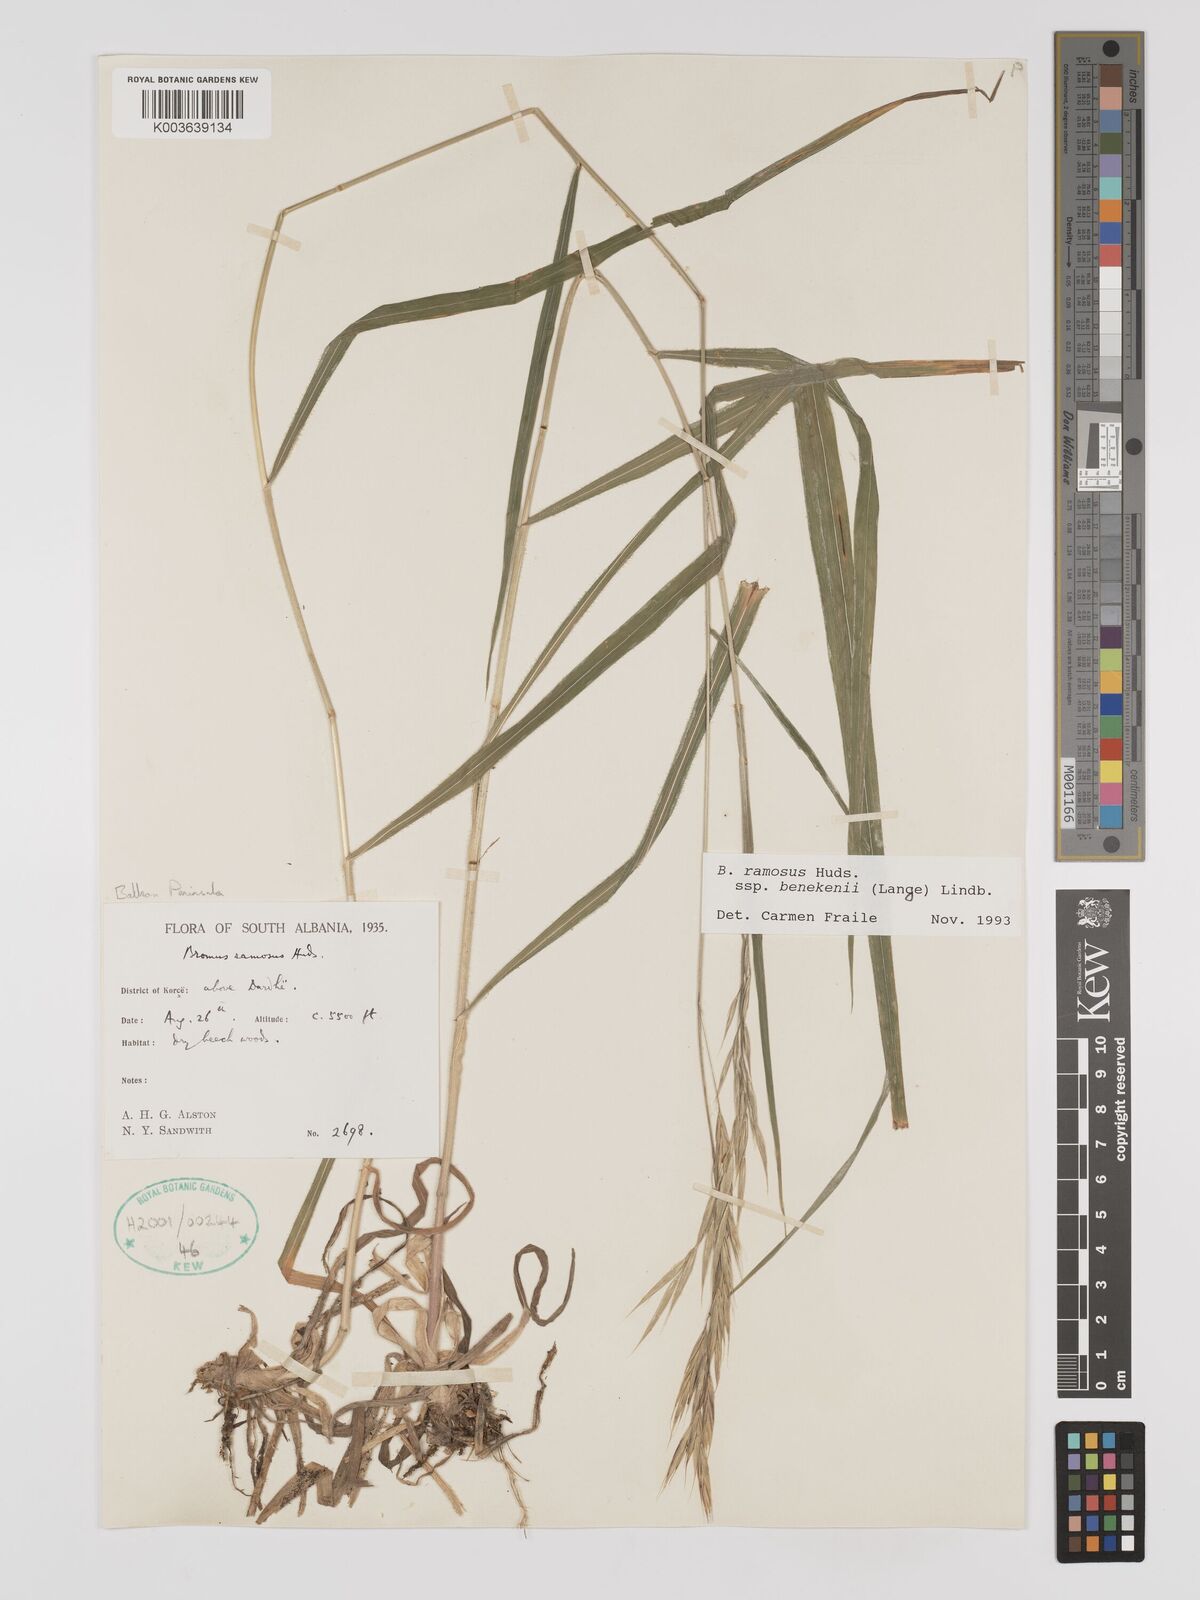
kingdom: Plantae
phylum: Tracheophyta
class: Liliopsida
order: Poales
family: Poaceae
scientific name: Poaceae
